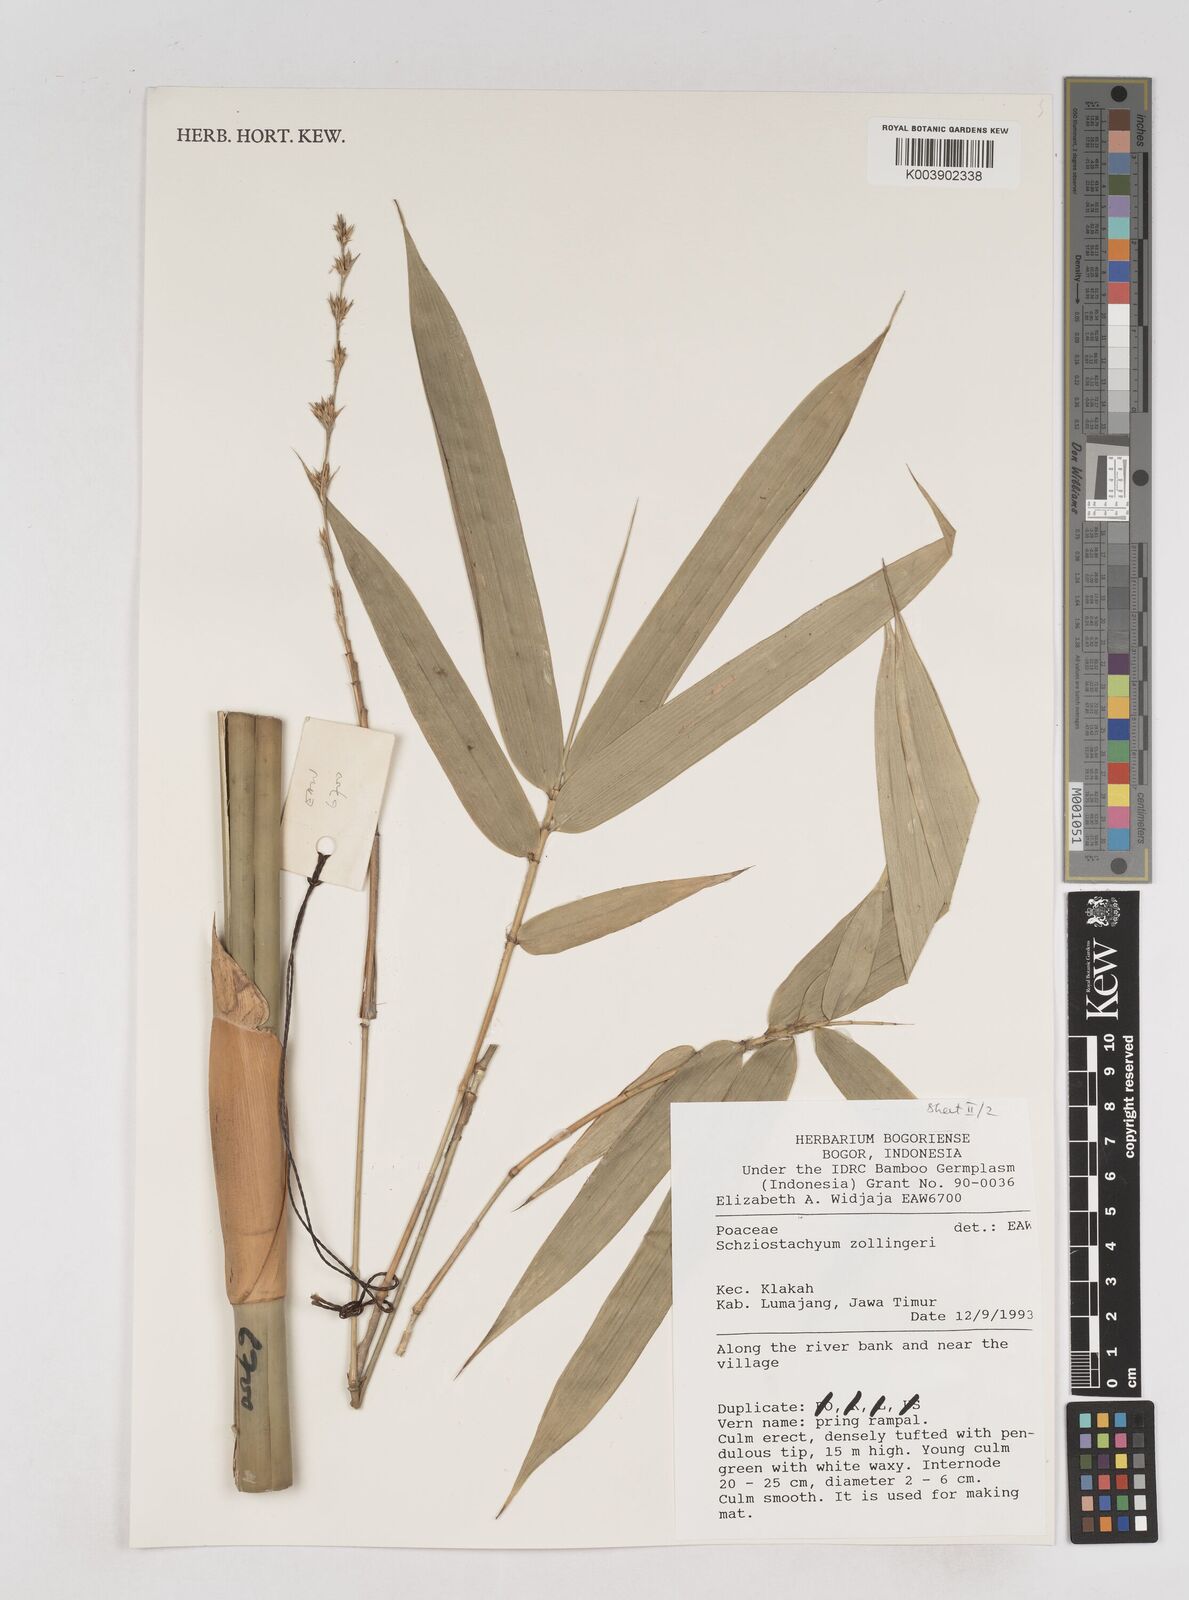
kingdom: Plantae
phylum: Tracheophyta
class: Liliopsida
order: Poales
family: Poaceae
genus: Schizostachyum
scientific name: Schizostachyum zollingeri
